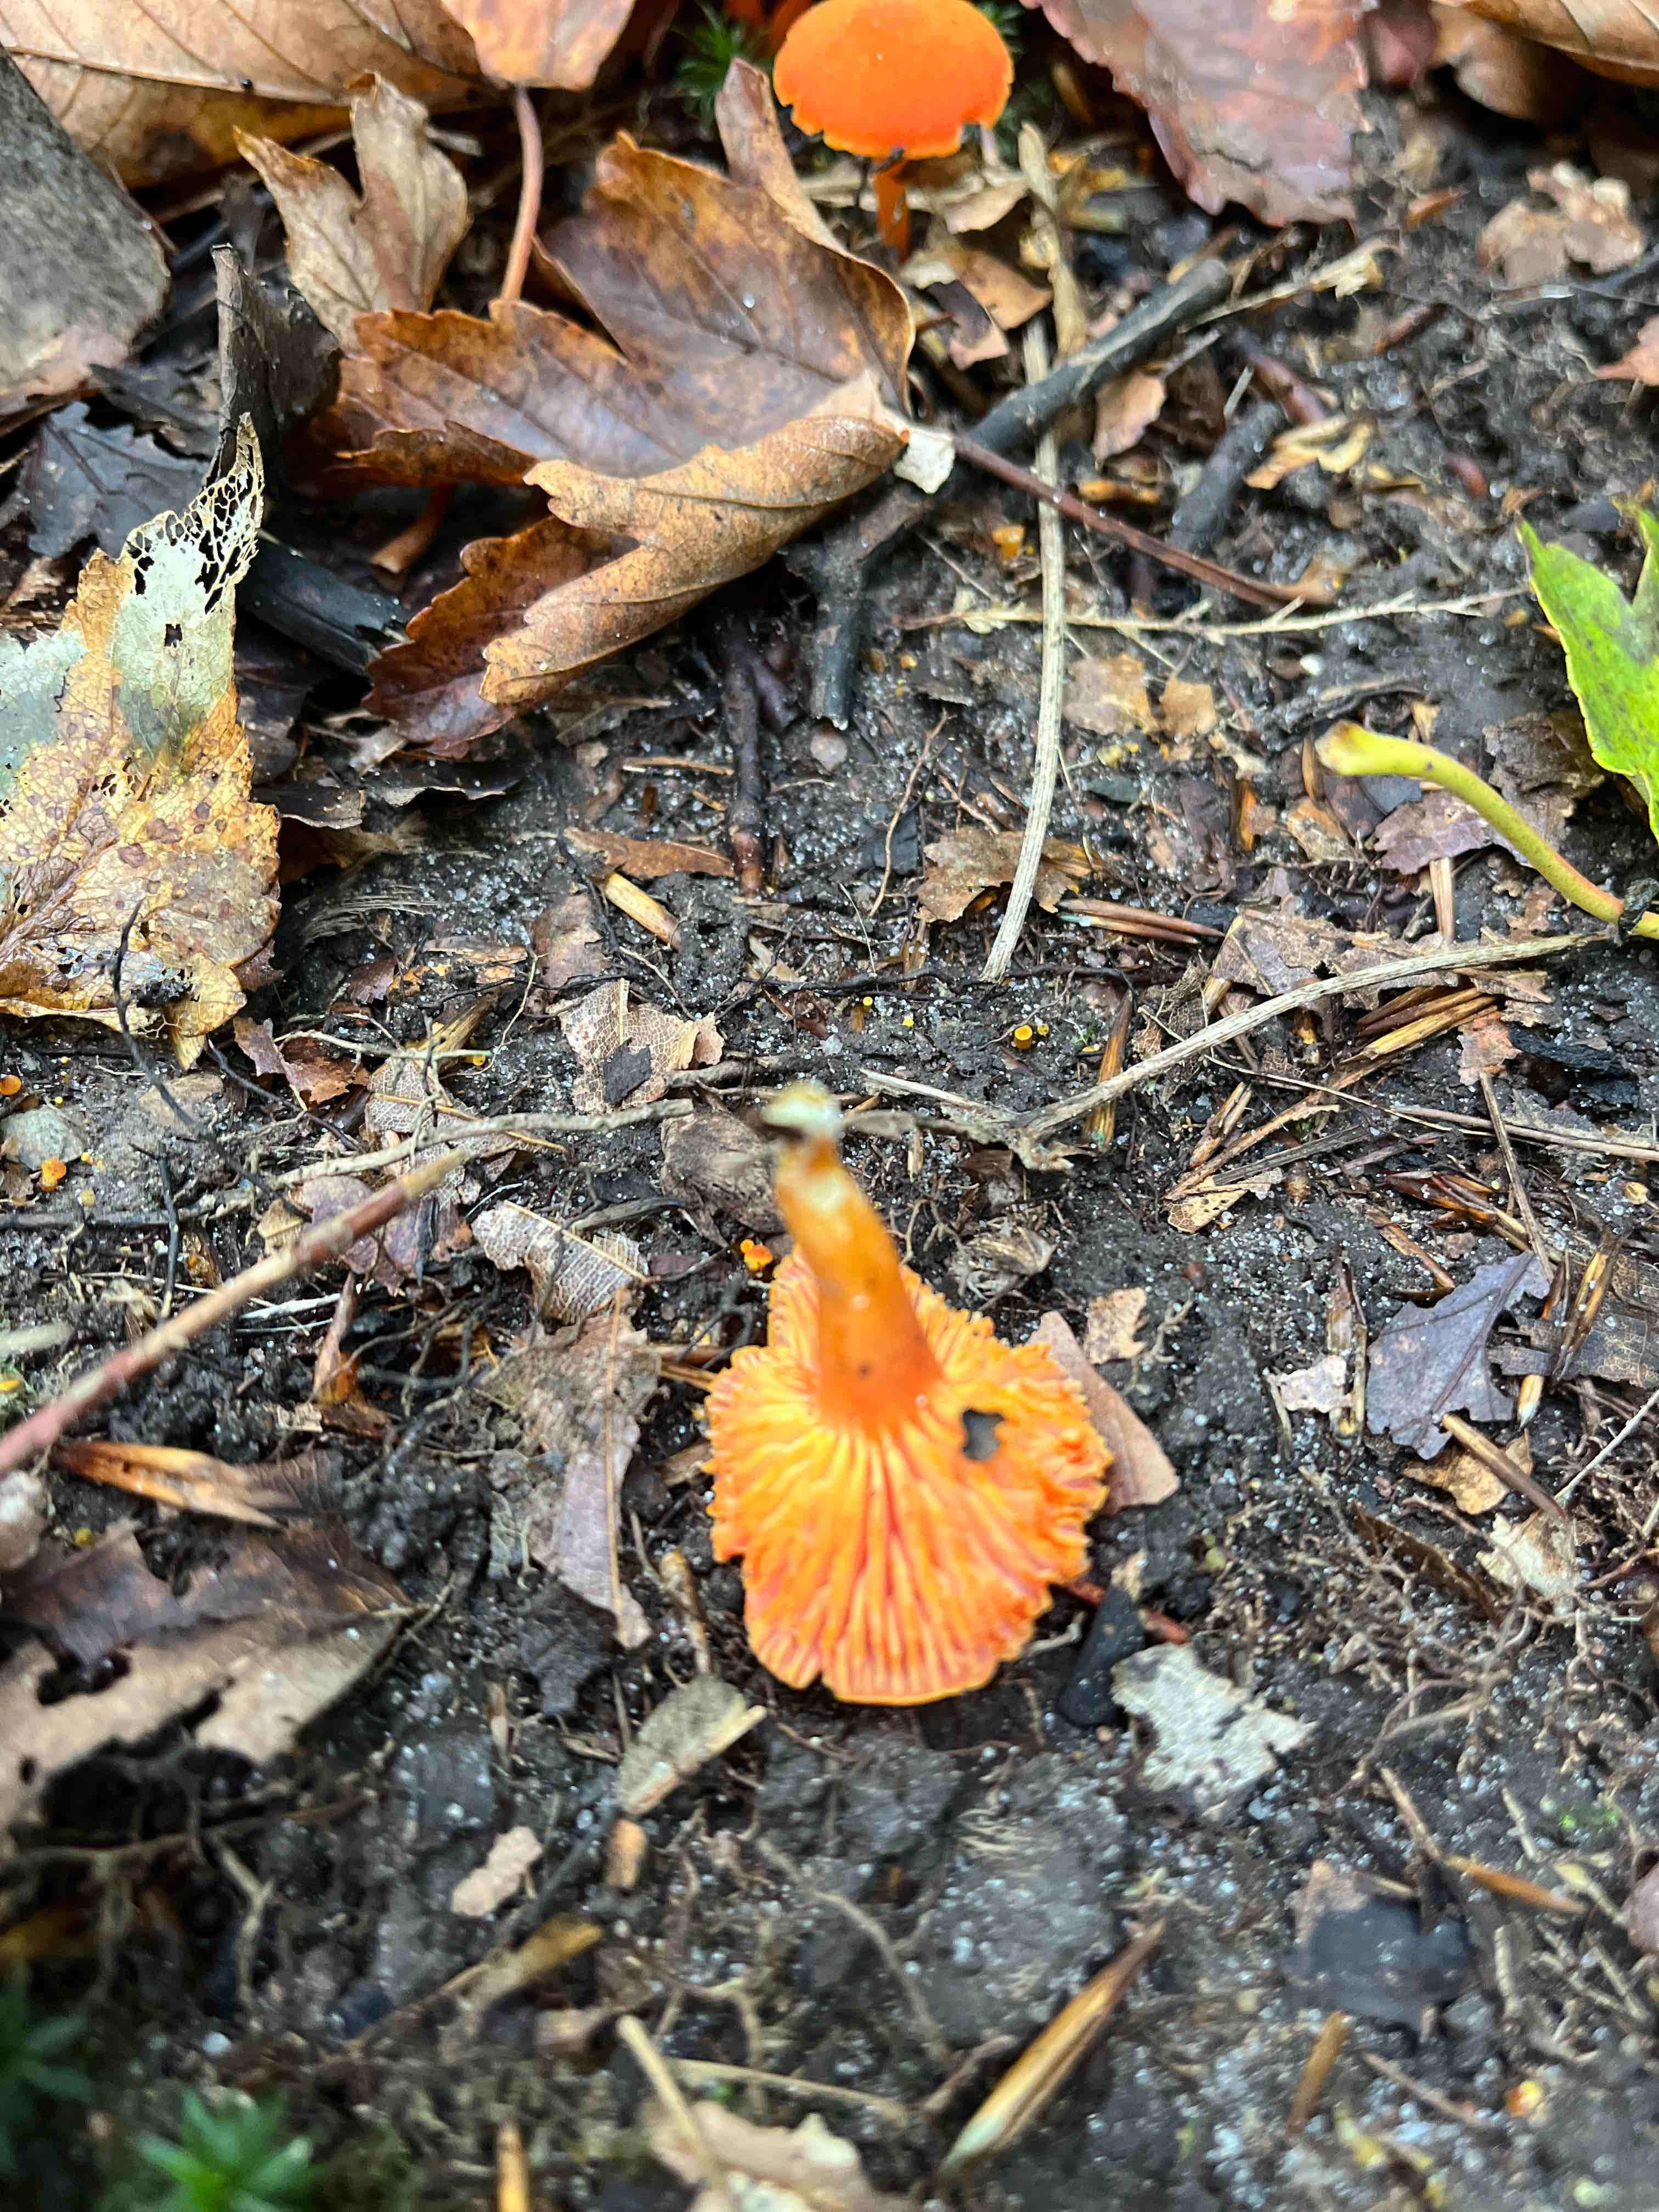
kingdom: Fungi
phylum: Basidiomycota
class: Agaricomycetes
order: Agaricales
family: Hygrophoraceae
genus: Hygrocybe
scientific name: Hygrocybe miniata
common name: mønje-vokshat
